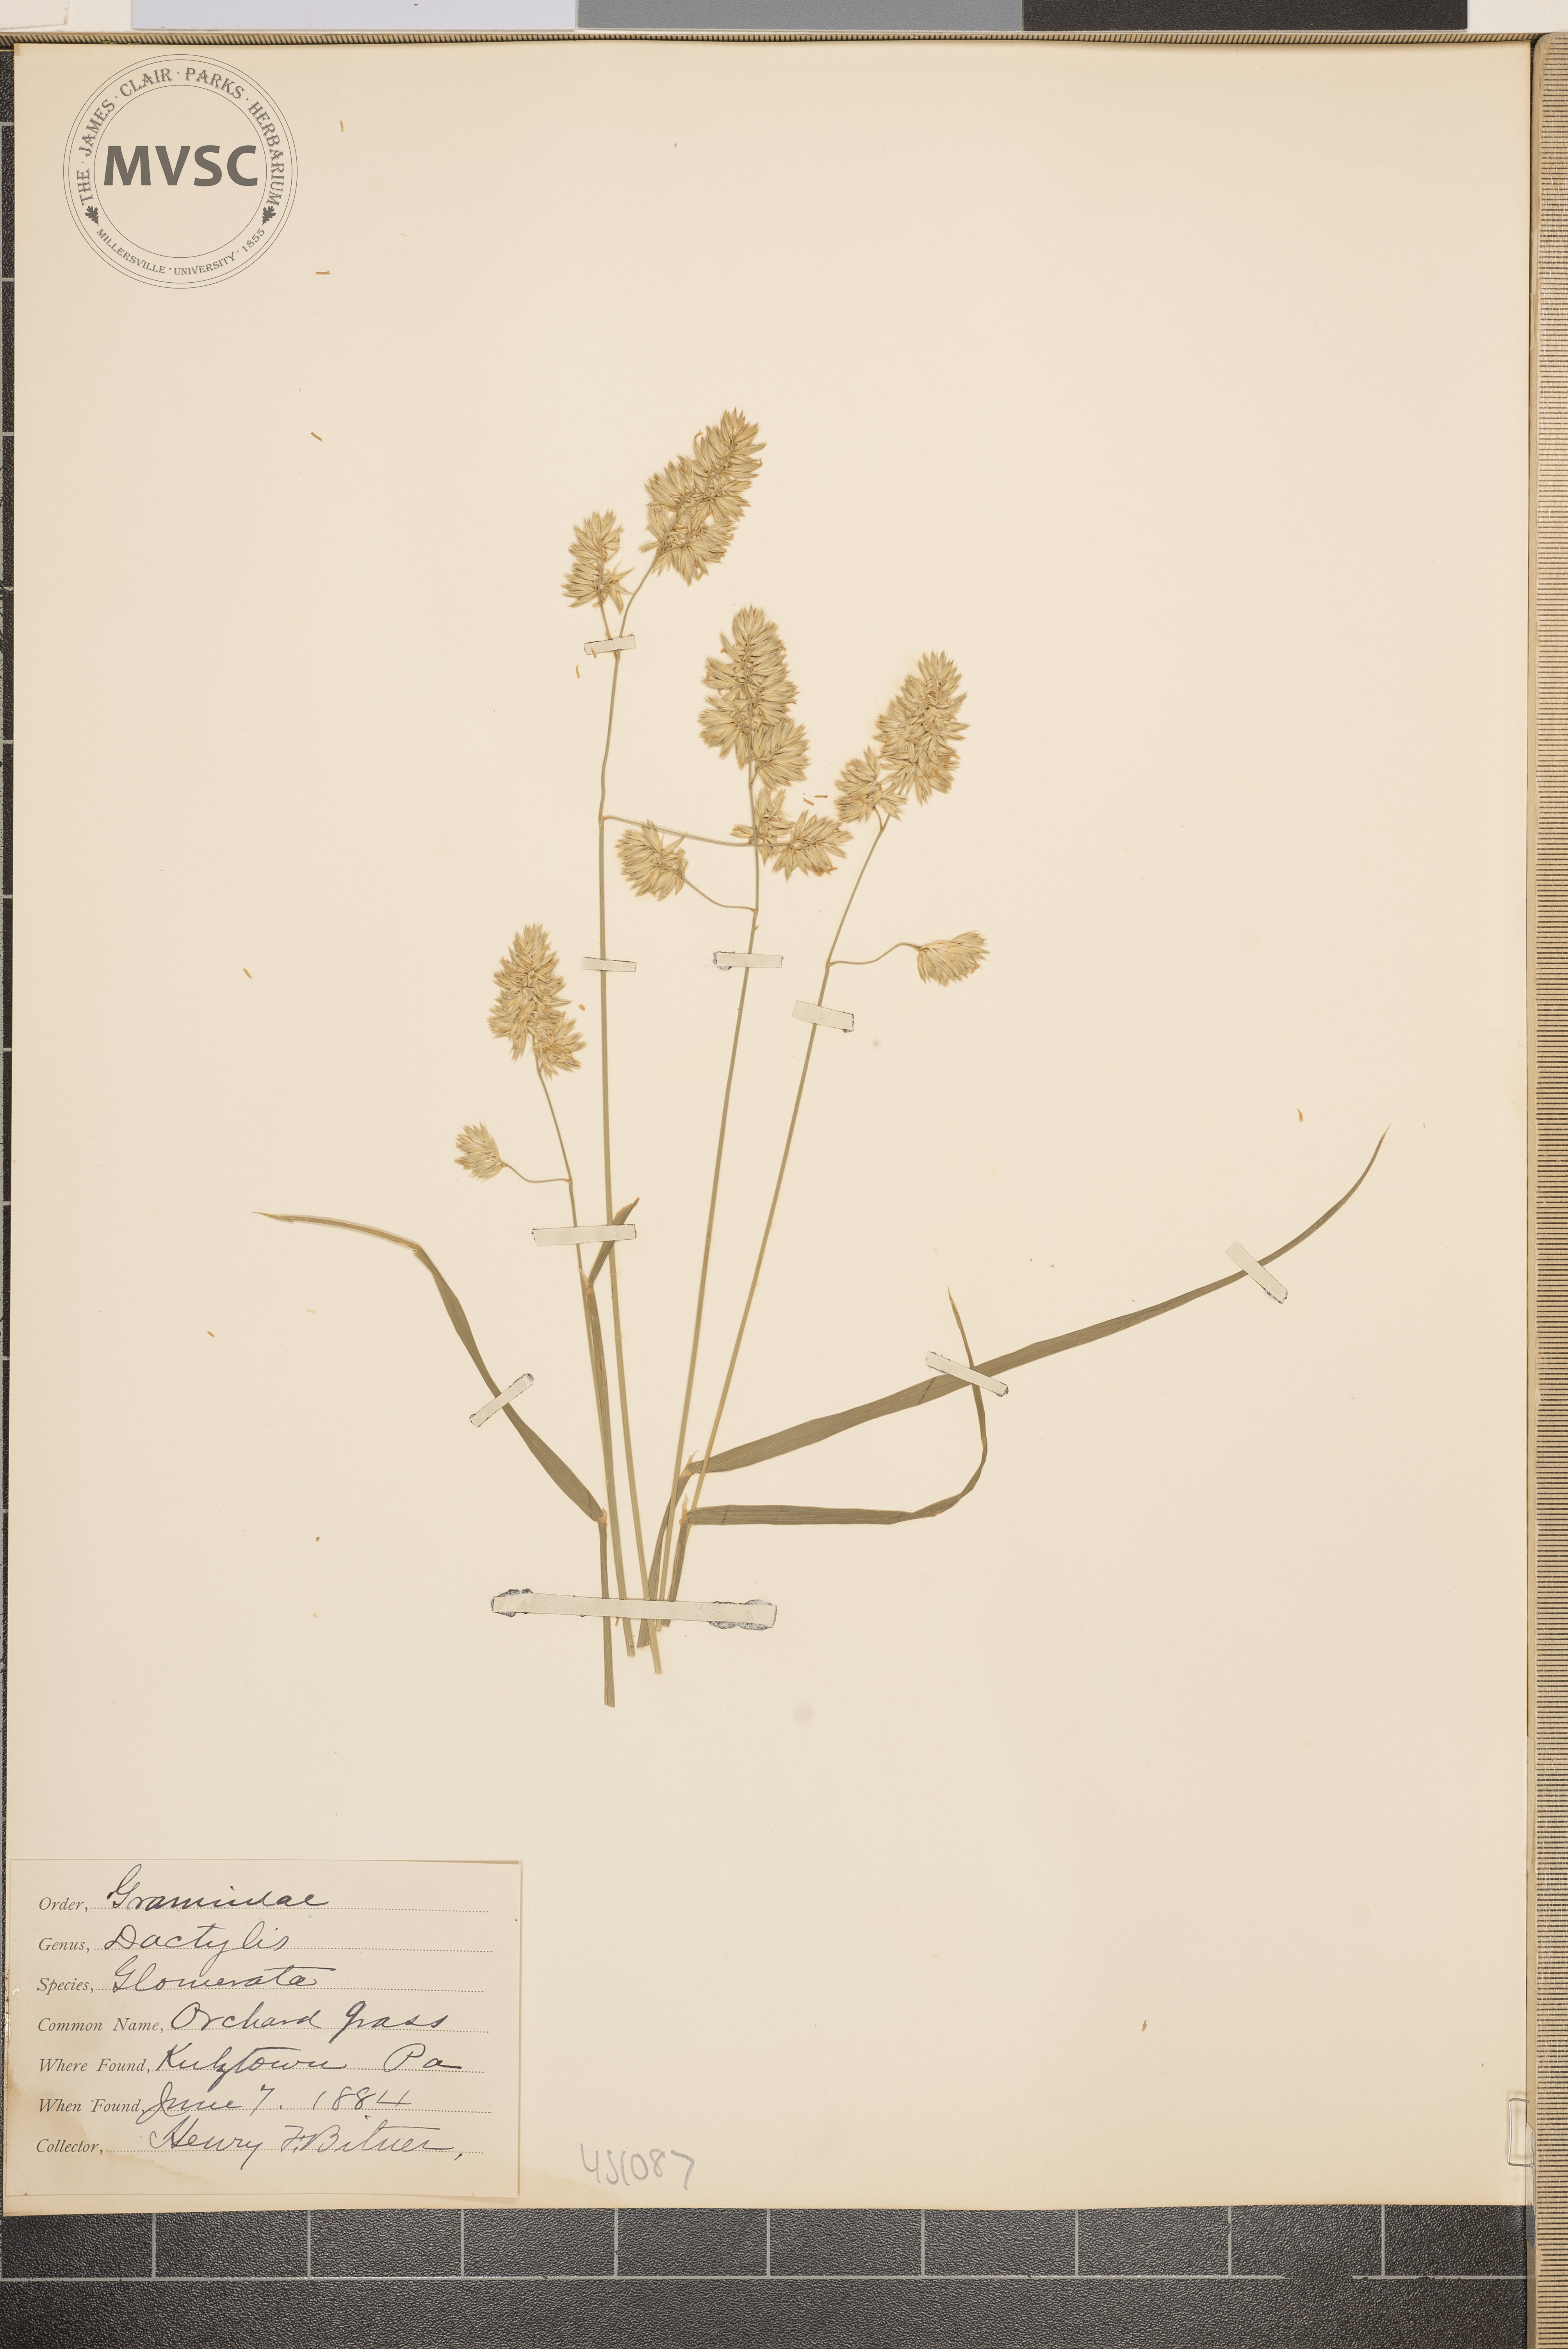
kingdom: Plantae
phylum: Tracheophyta
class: Liliopsida
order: Poales
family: Poaceae
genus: Dactylis
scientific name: Dactylis glomerata
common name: Orchard grass
